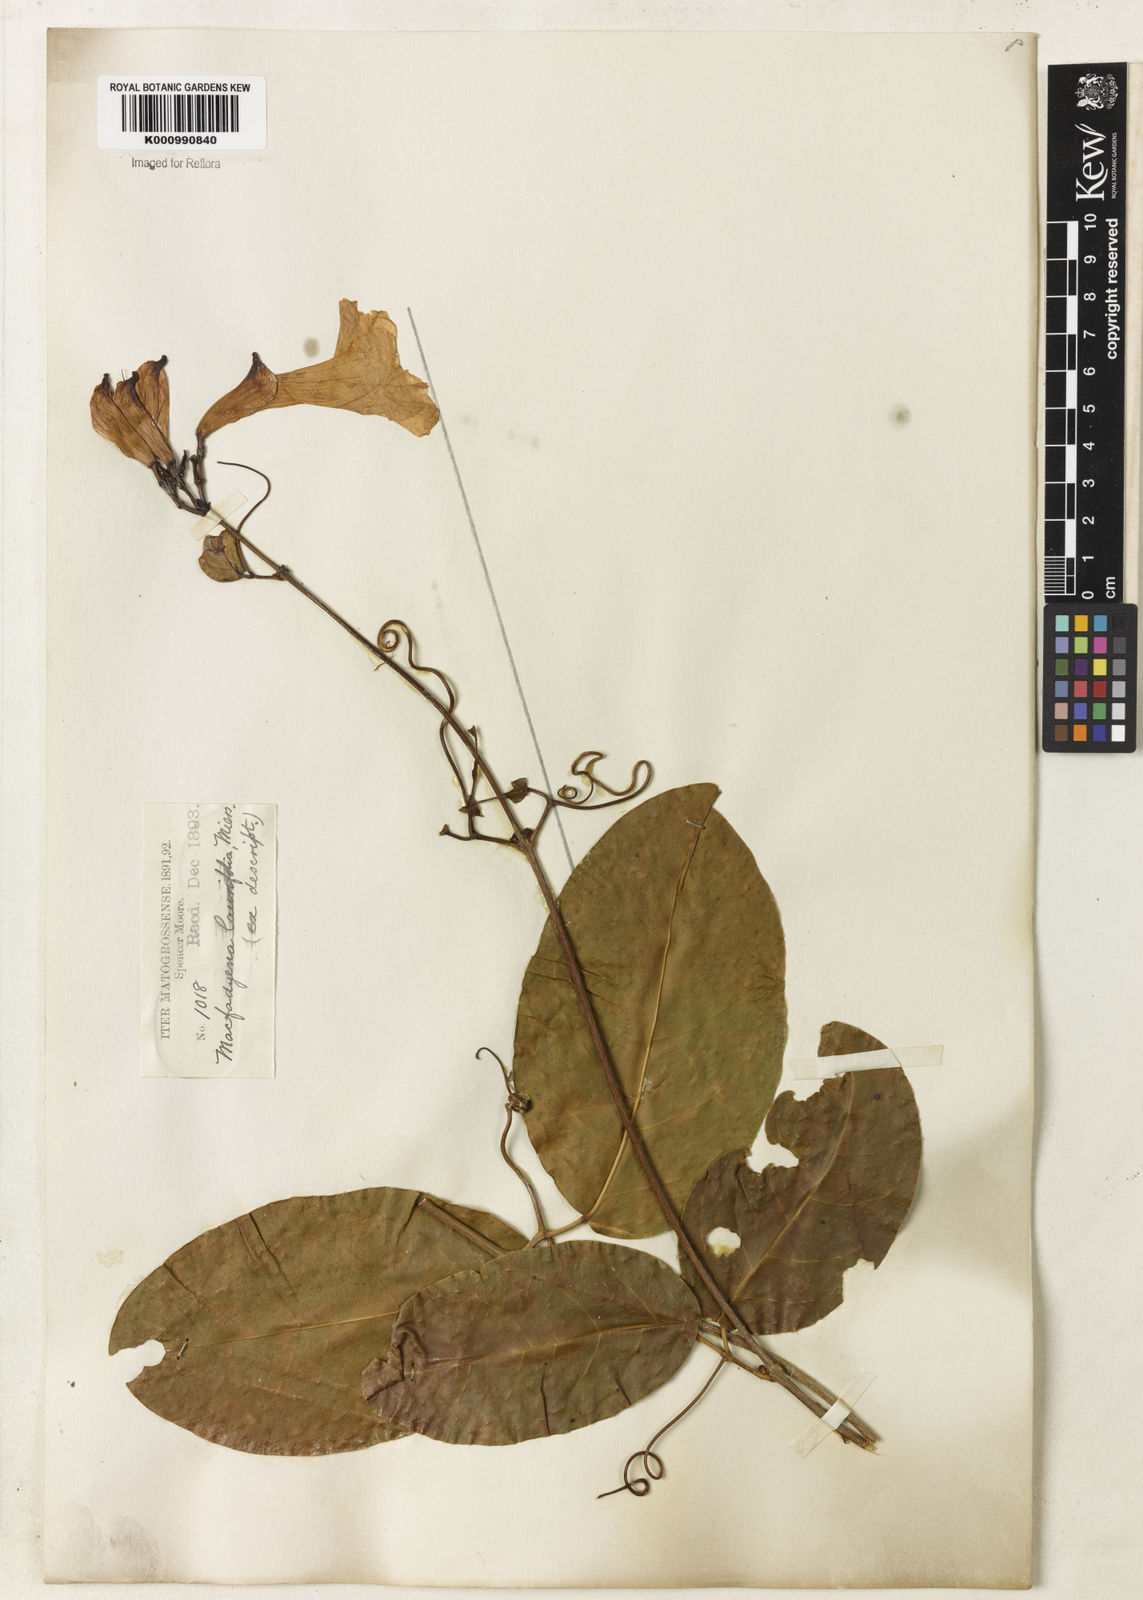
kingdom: Plantae
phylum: Tracheophyta
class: Magnoliopsida
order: Lamiales
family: Bignoniaceae
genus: Bignonia
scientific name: Bignonia corymbosa
